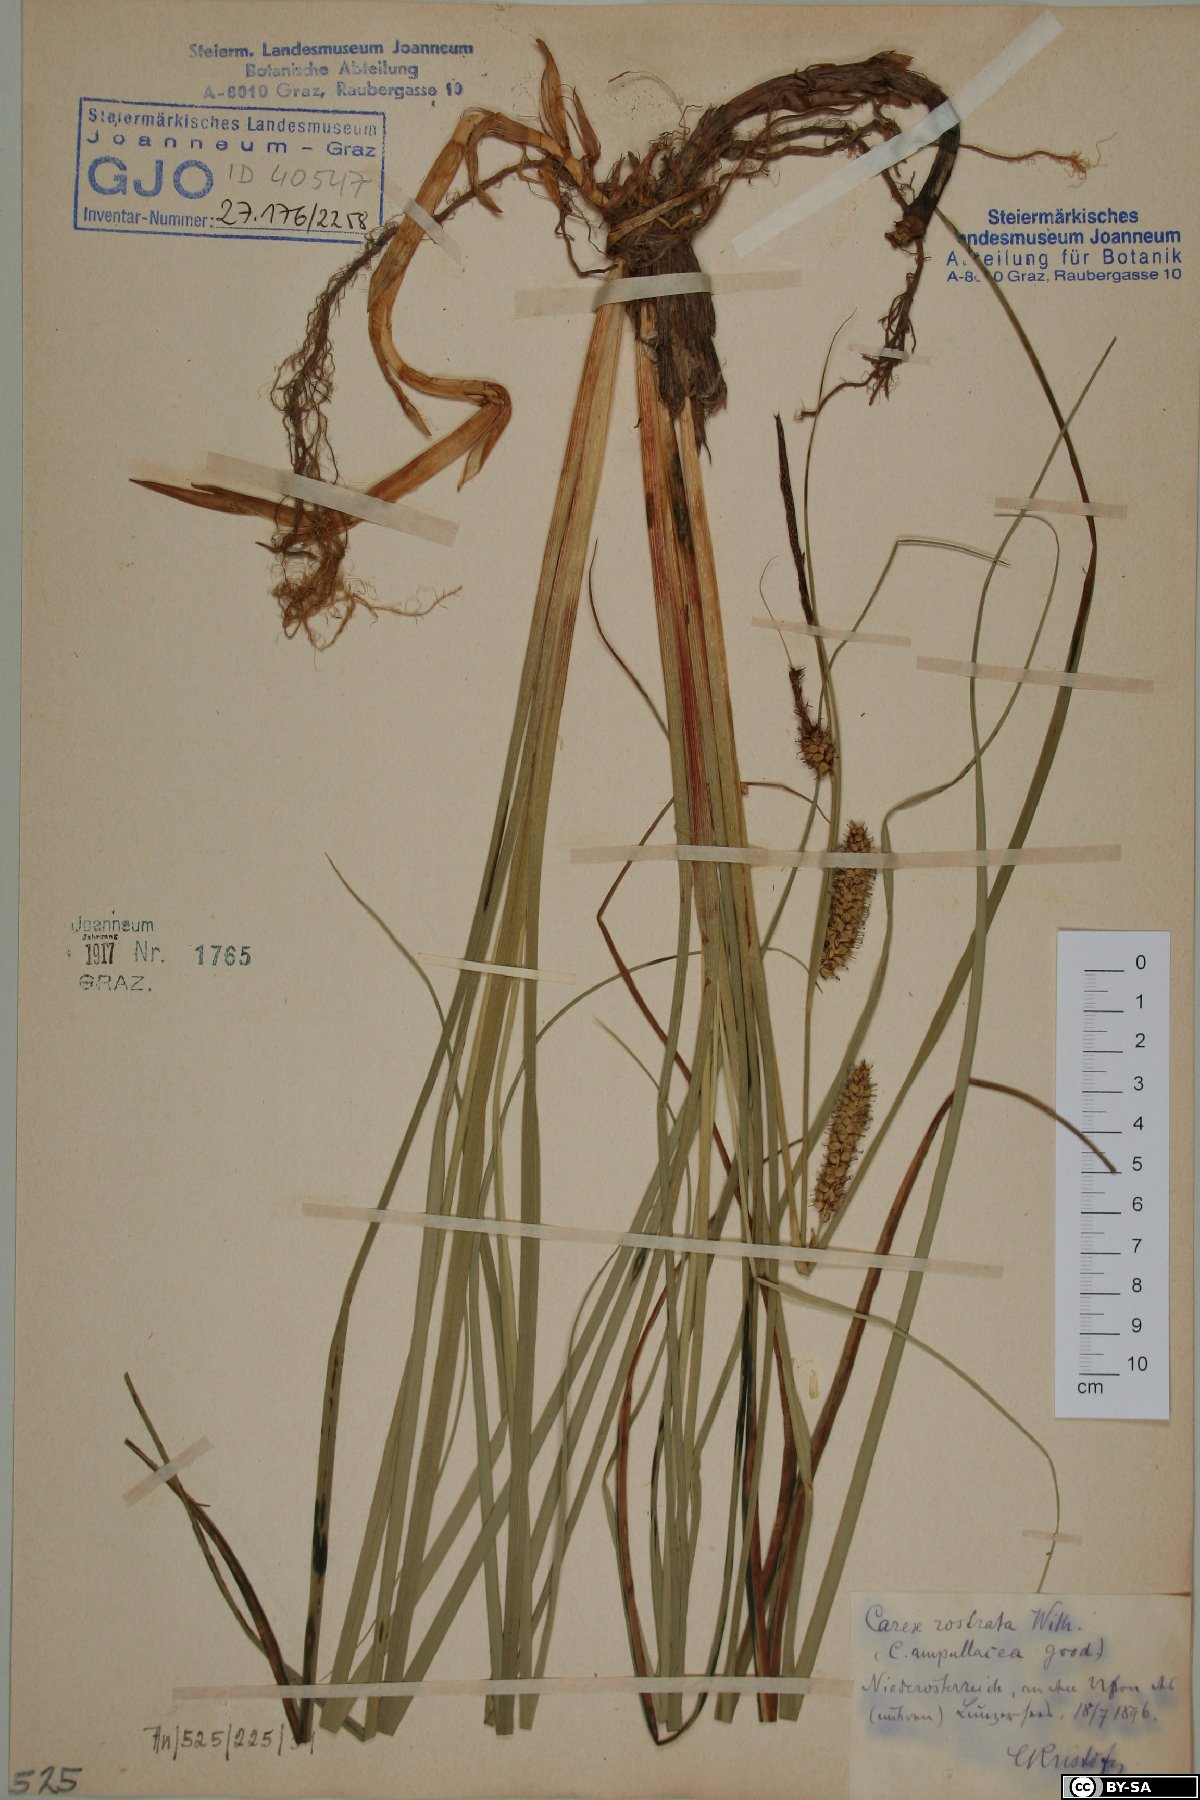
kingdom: Plantae
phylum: Tracheophyta
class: Liliopsida
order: Poales
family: Cyperaceae
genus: Carex
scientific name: Carex rostrata
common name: Bottle sedge
